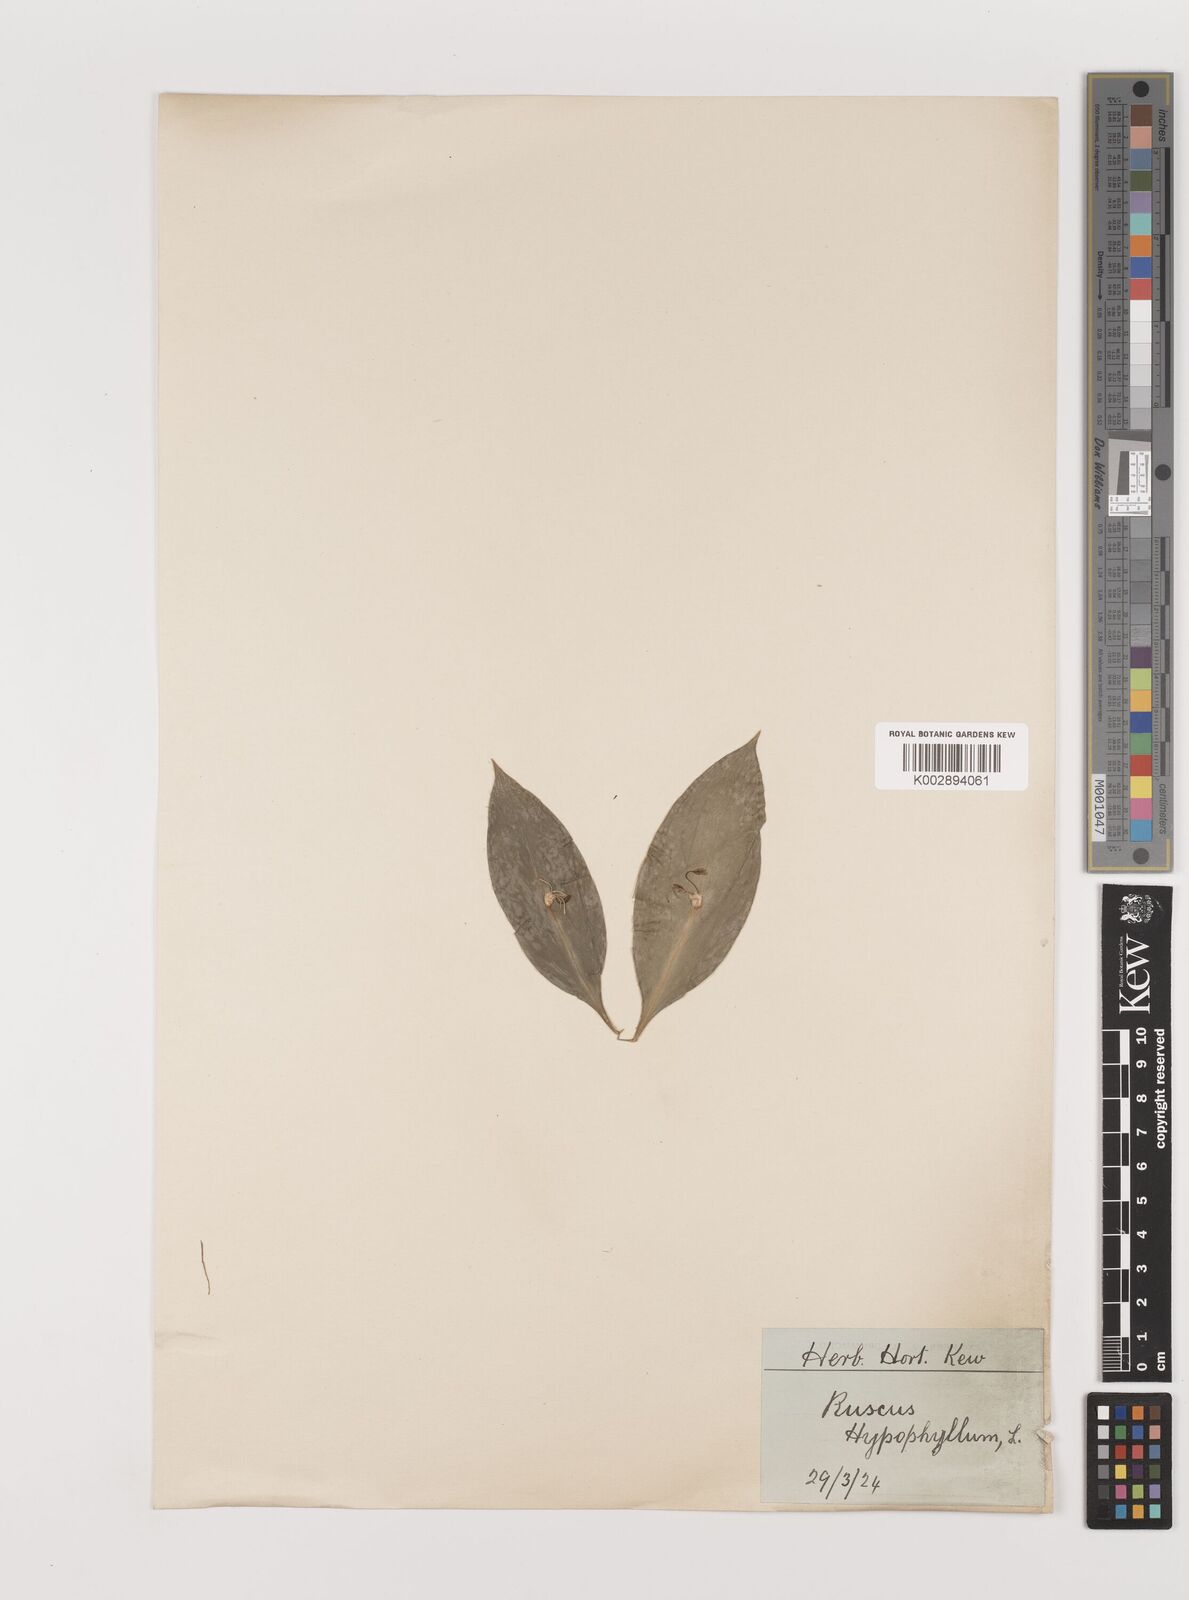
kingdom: Plantae
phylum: Tracheophyta
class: Liliopsida
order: Asparagales
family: Asparagaceae
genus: Ruscus
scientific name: Ruscus hypoglossum
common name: Spineless butcher's-broom
